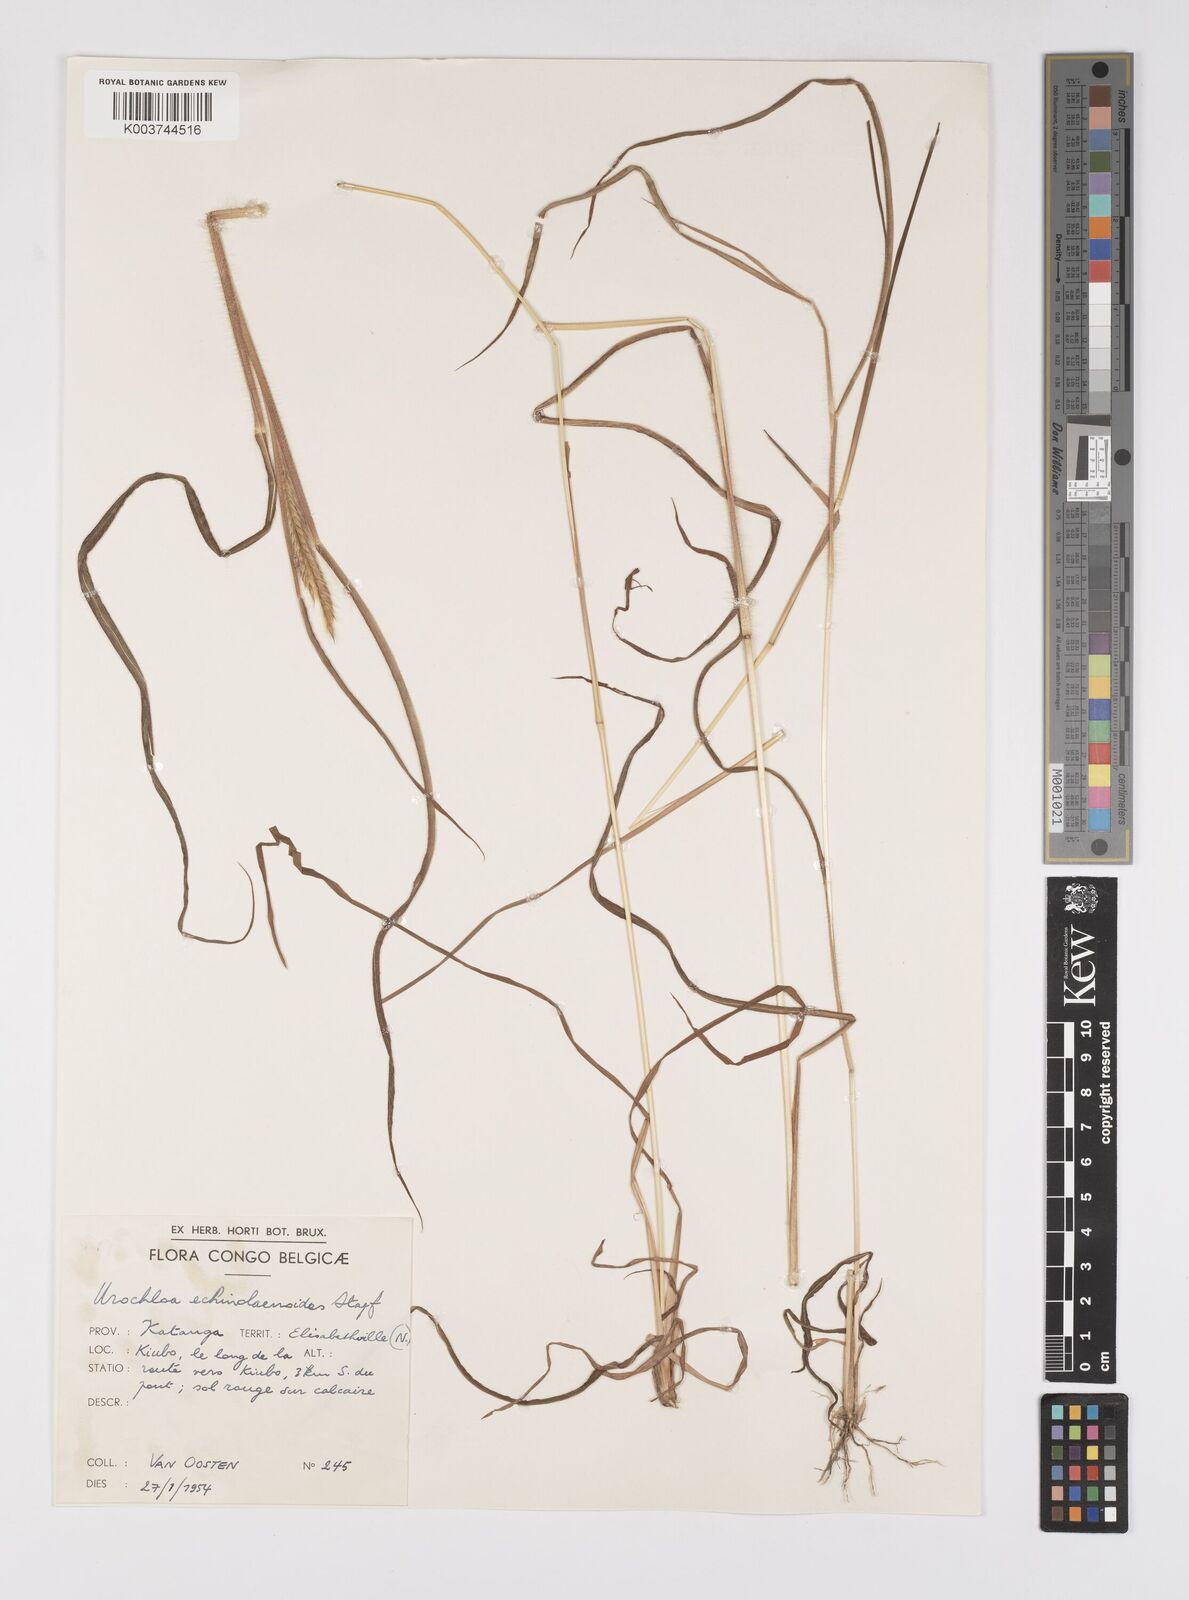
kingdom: Plantae
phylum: Tracheophyta
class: Liliopsida
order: Poales
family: Poaceae
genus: Urochloa
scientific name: Urochloa echinolaenoides
